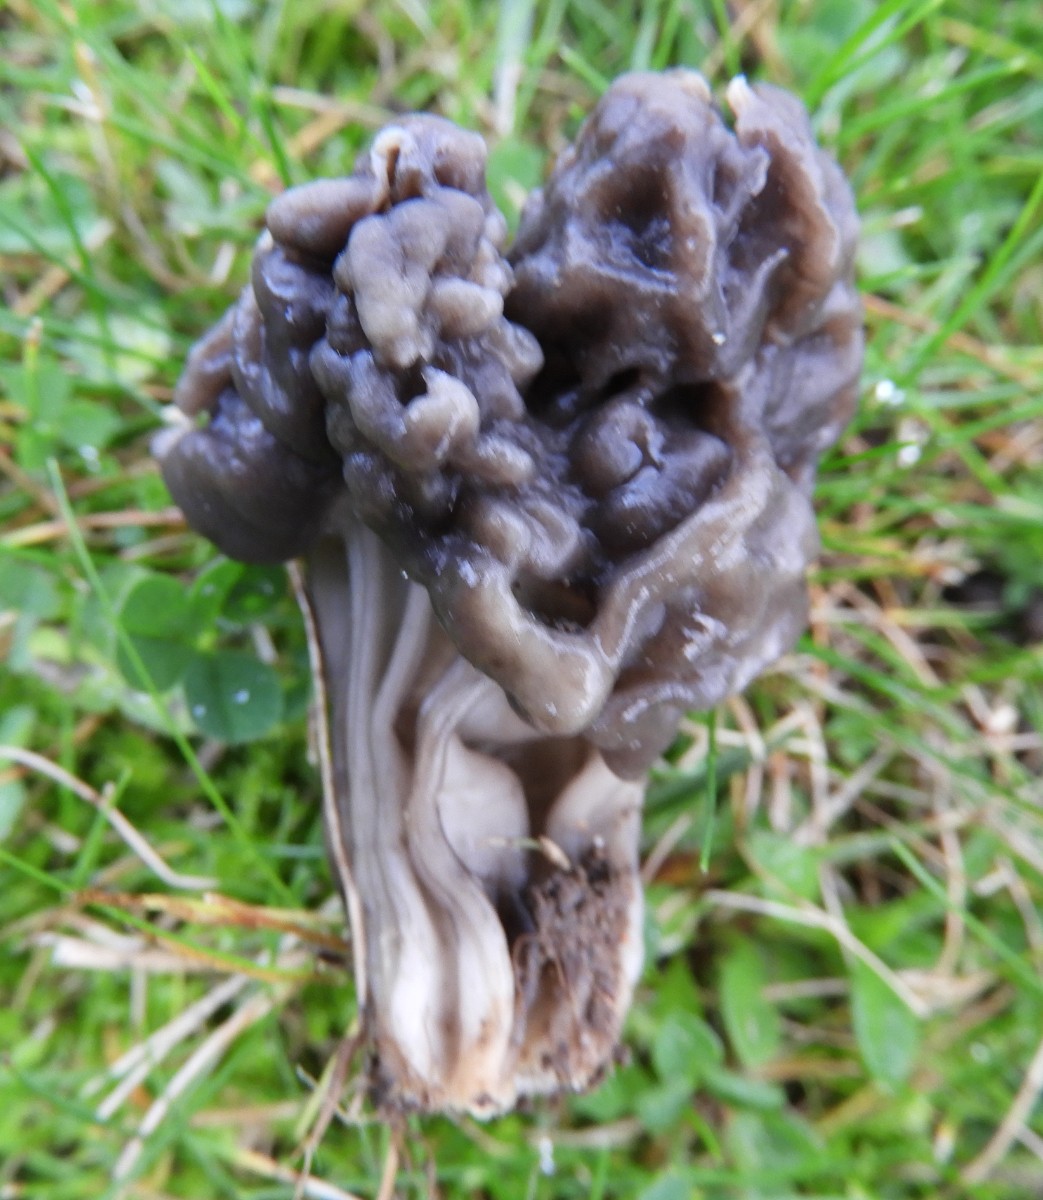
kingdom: Fungi
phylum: Ascomycota
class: Pezizomycetes
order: Pezizales
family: Helvellaceae
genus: Helvella
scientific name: Helvella lacunosa
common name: grubet foldhat
